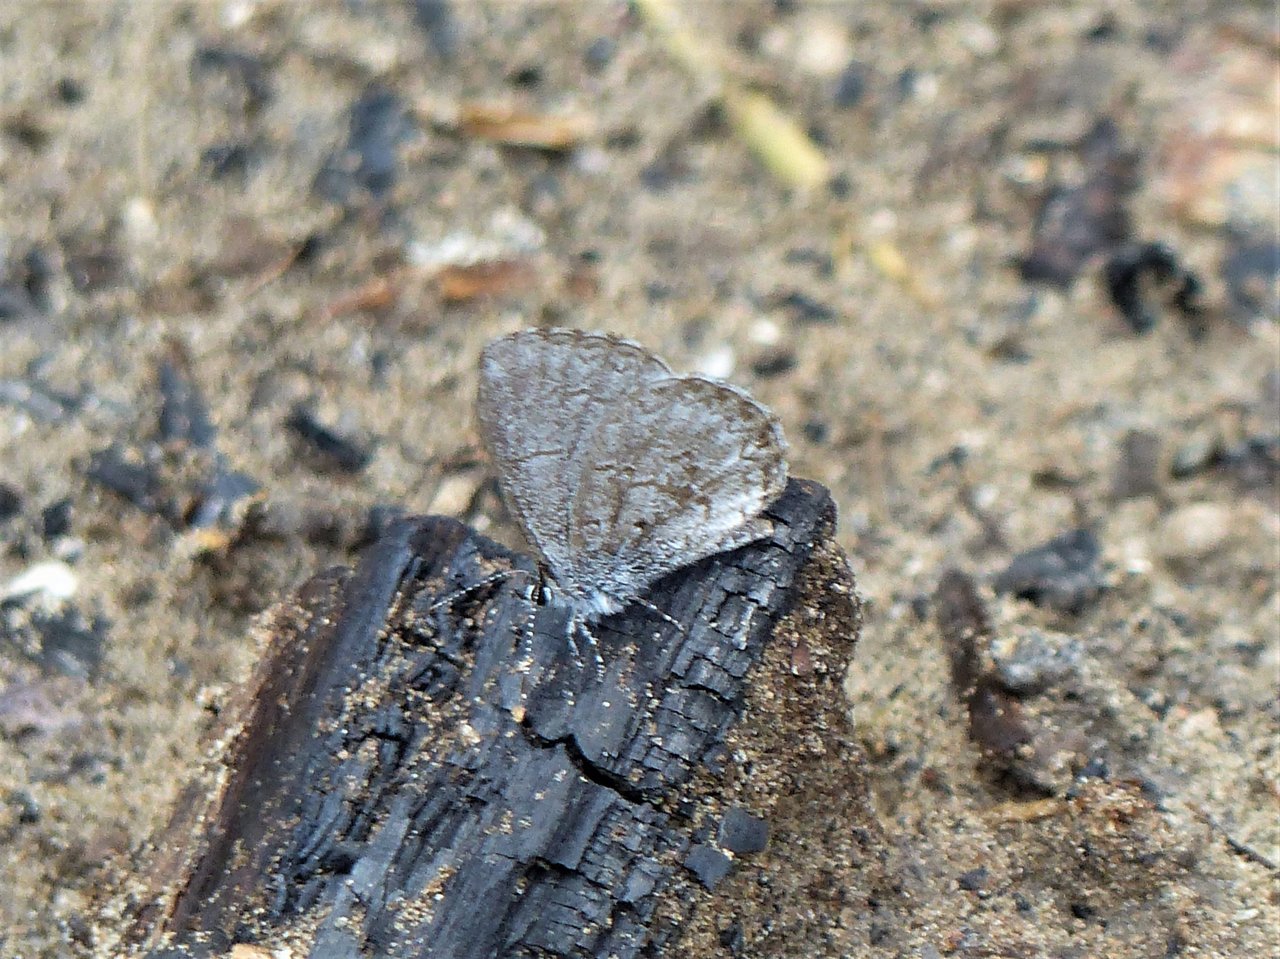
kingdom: Animalia
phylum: Arthropoda
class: Insecta
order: Lepidoptera
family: Lycaenidae
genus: Celastrina
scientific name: Celastrina lucia
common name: Northern Spring Azure
